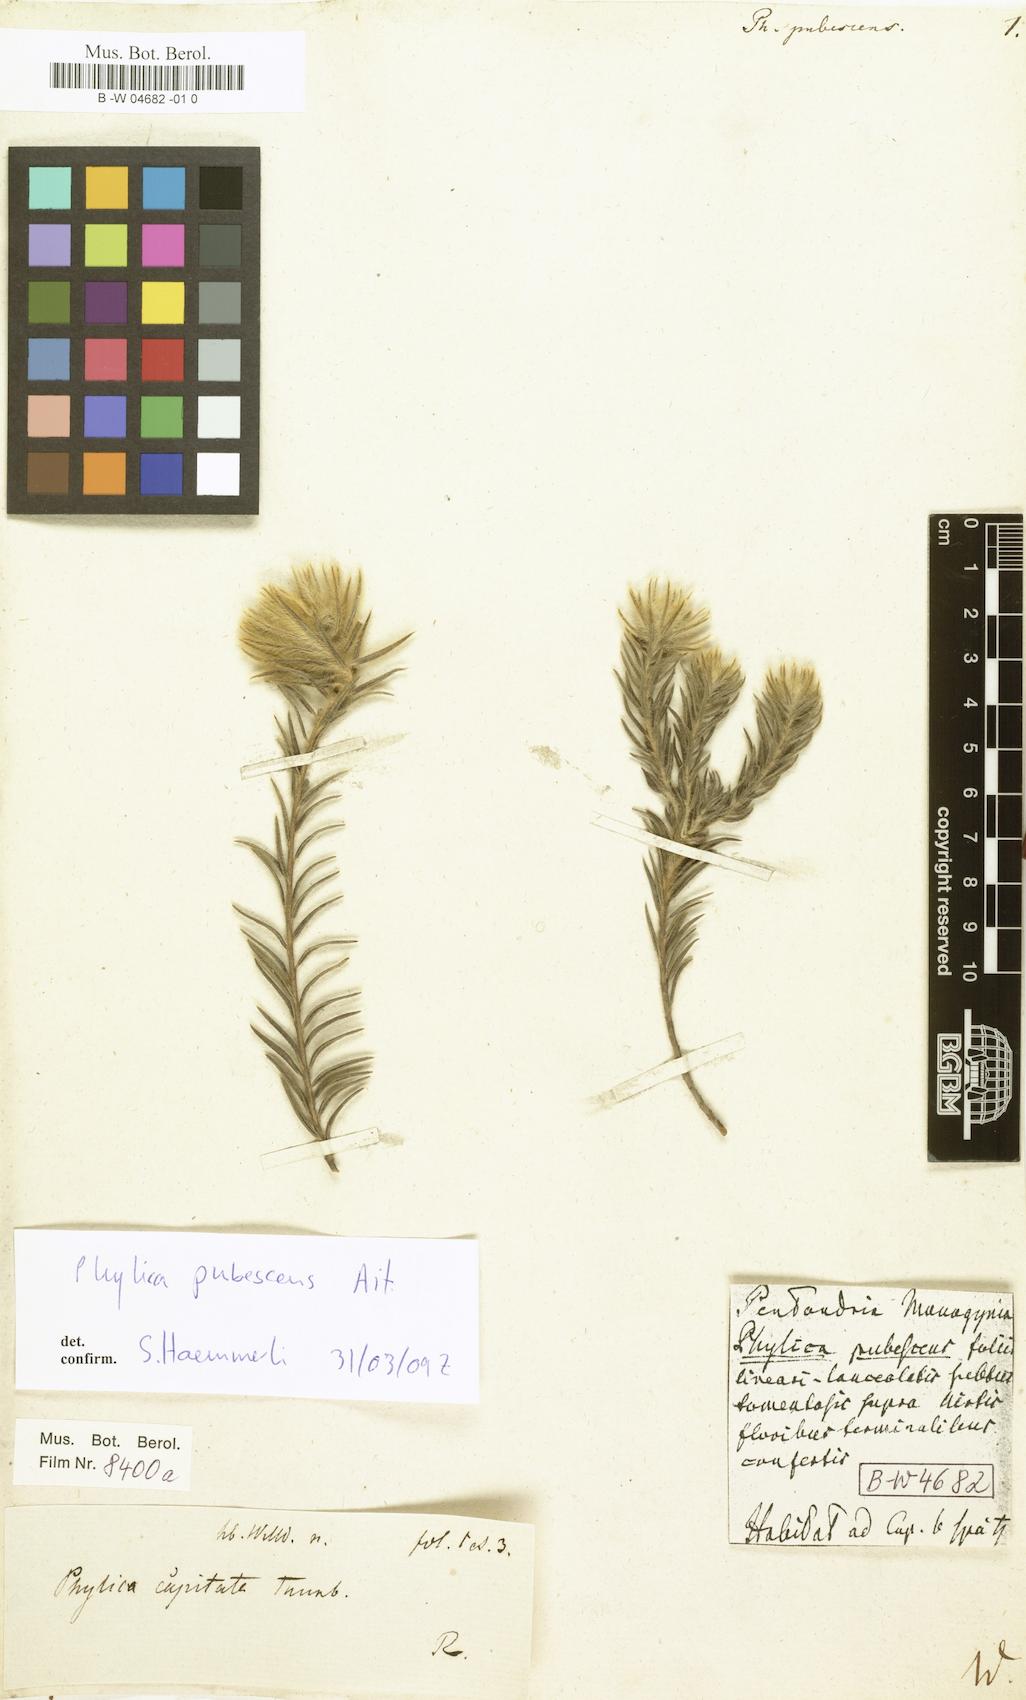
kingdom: Plantae
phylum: Tracheophyta
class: Magnoliopsida
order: Rosales
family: Rhamnaceae
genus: Phylica
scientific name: Phylica pubescens
